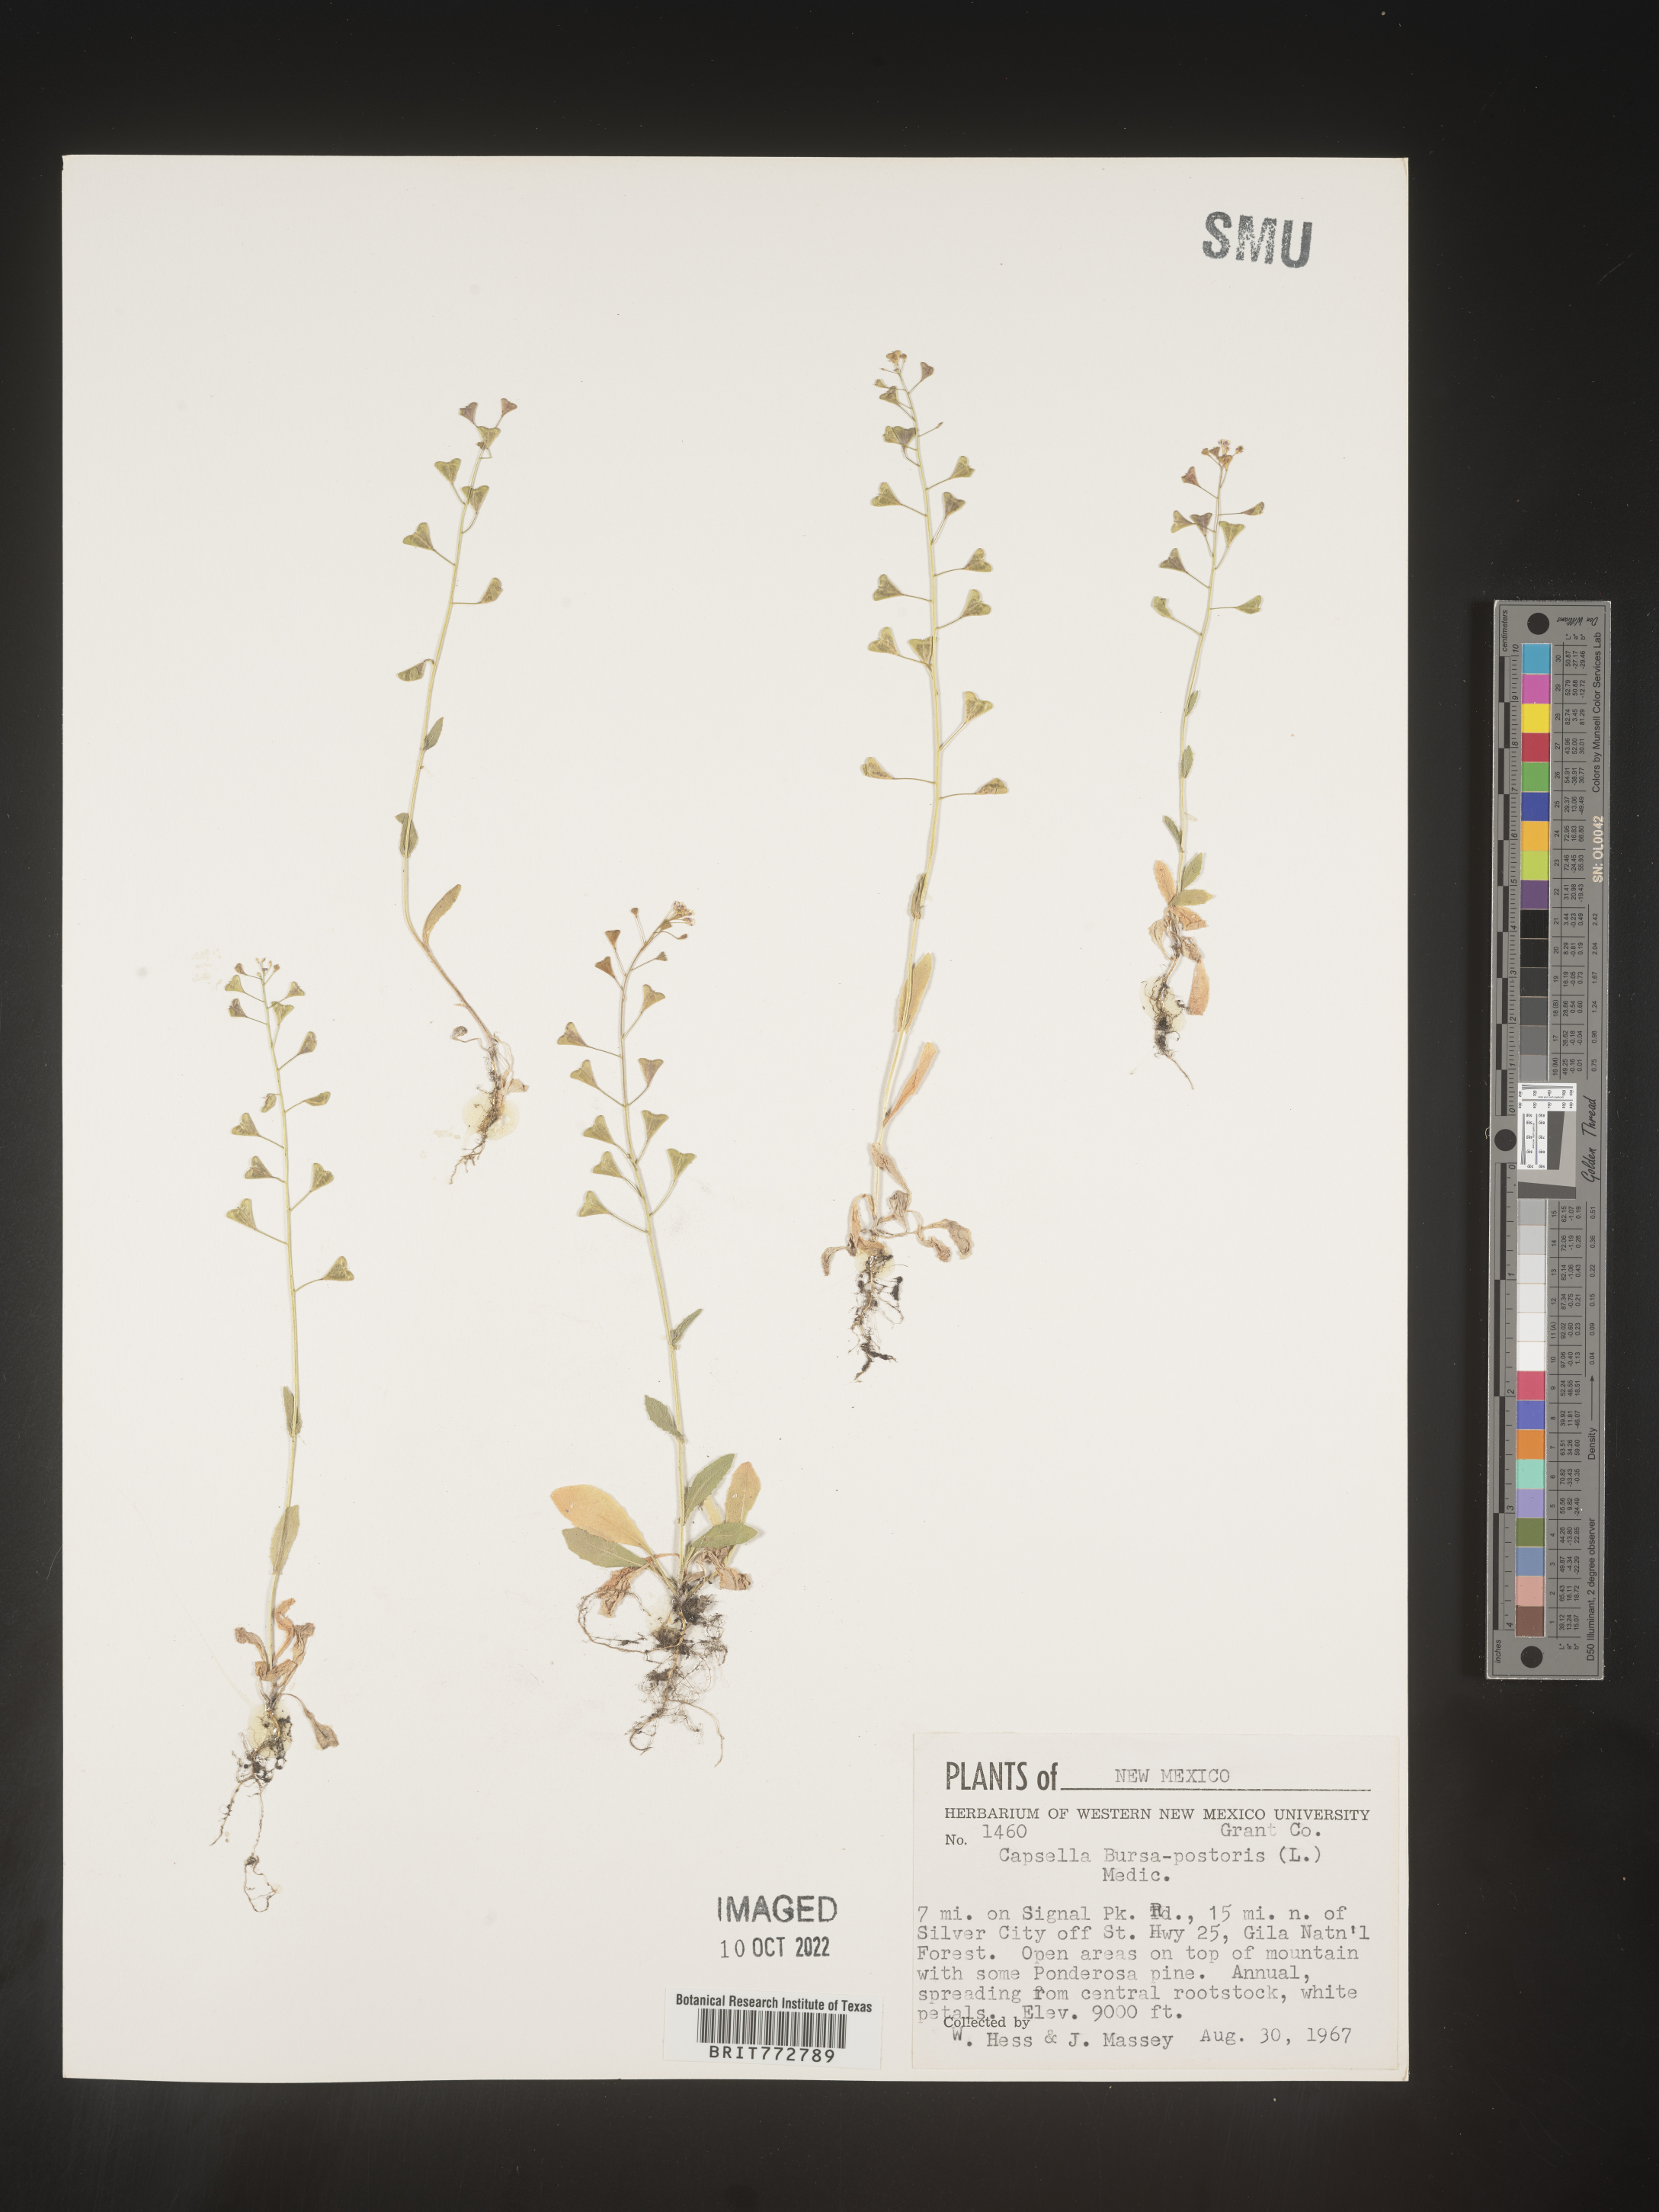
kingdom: Plantae
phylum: Tracheophyta
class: Magnoliopsida
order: Brassicales
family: Brassicaceae
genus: Capsella
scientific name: Capsella bursa-pastoris
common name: Shepherd's purse
